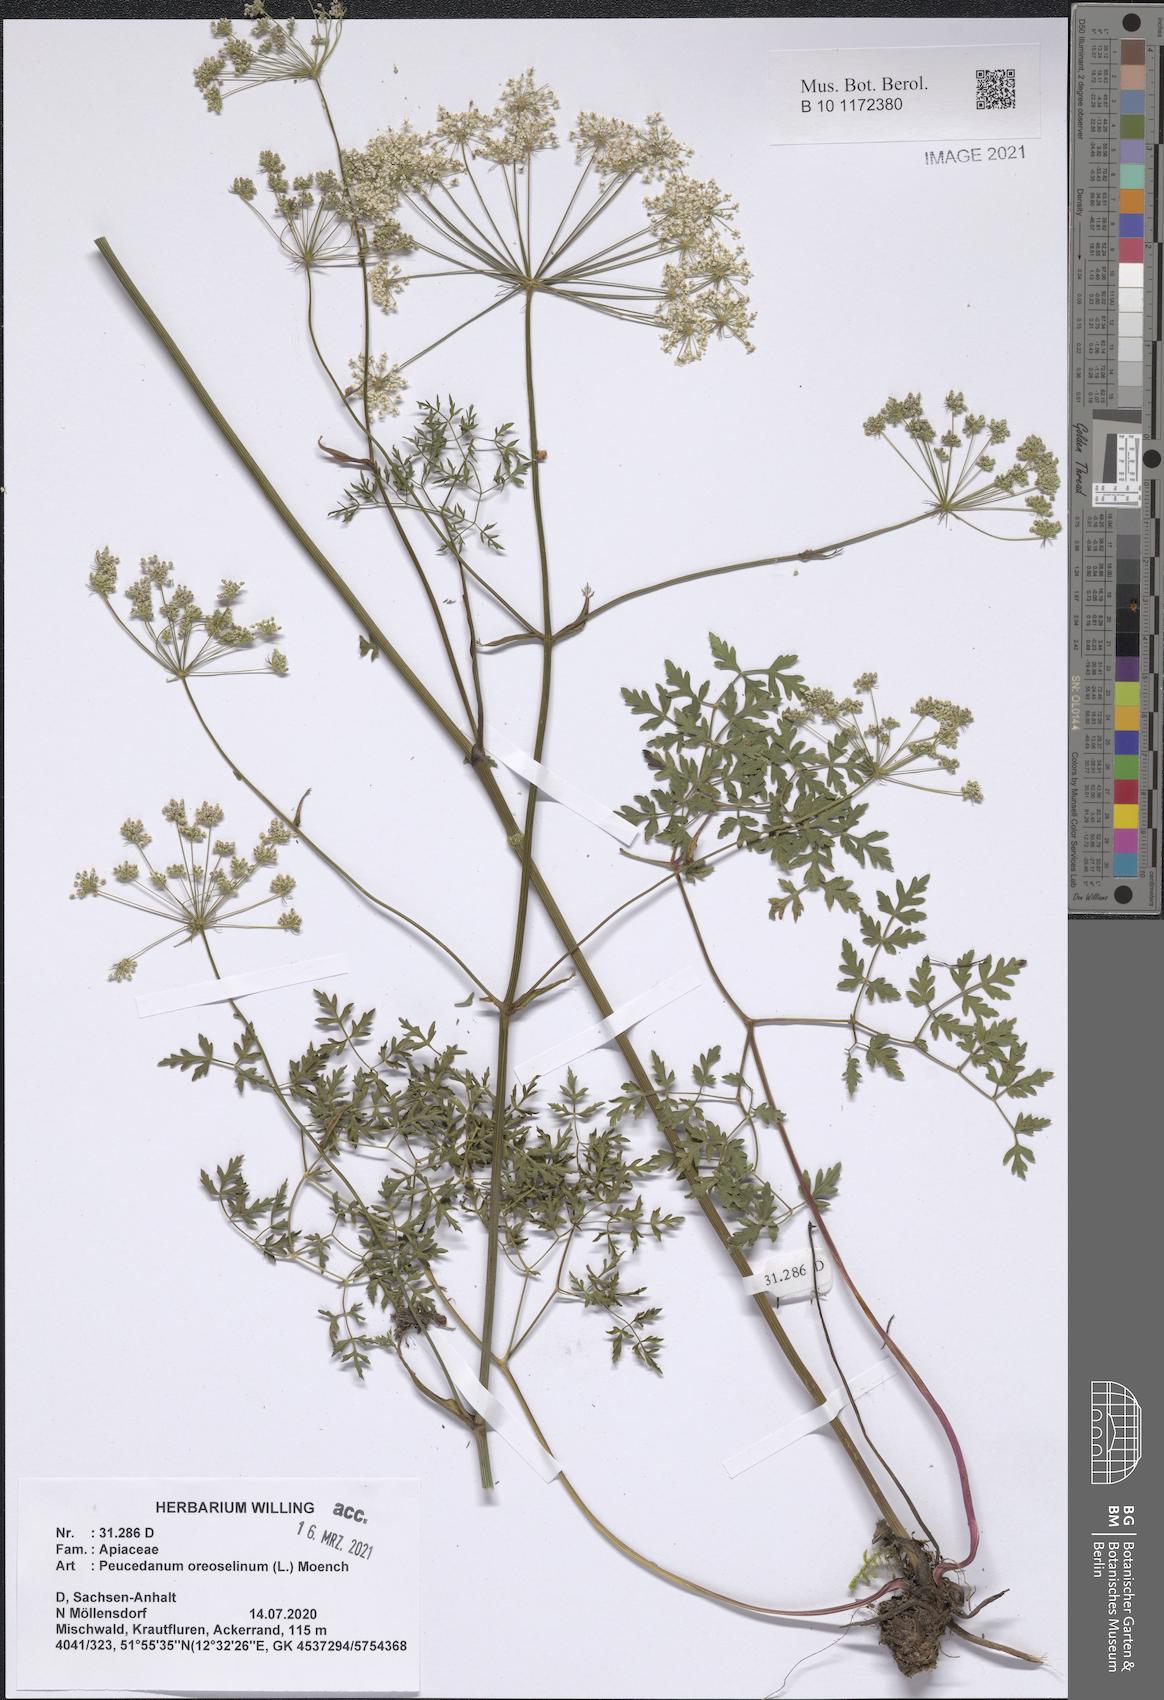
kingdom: Plantae
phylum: Tracheophyta
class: Magnoliopsida
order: Apiales
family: Apiaceae
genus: Oreoselinum
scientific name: Oreoselinum nigrum
